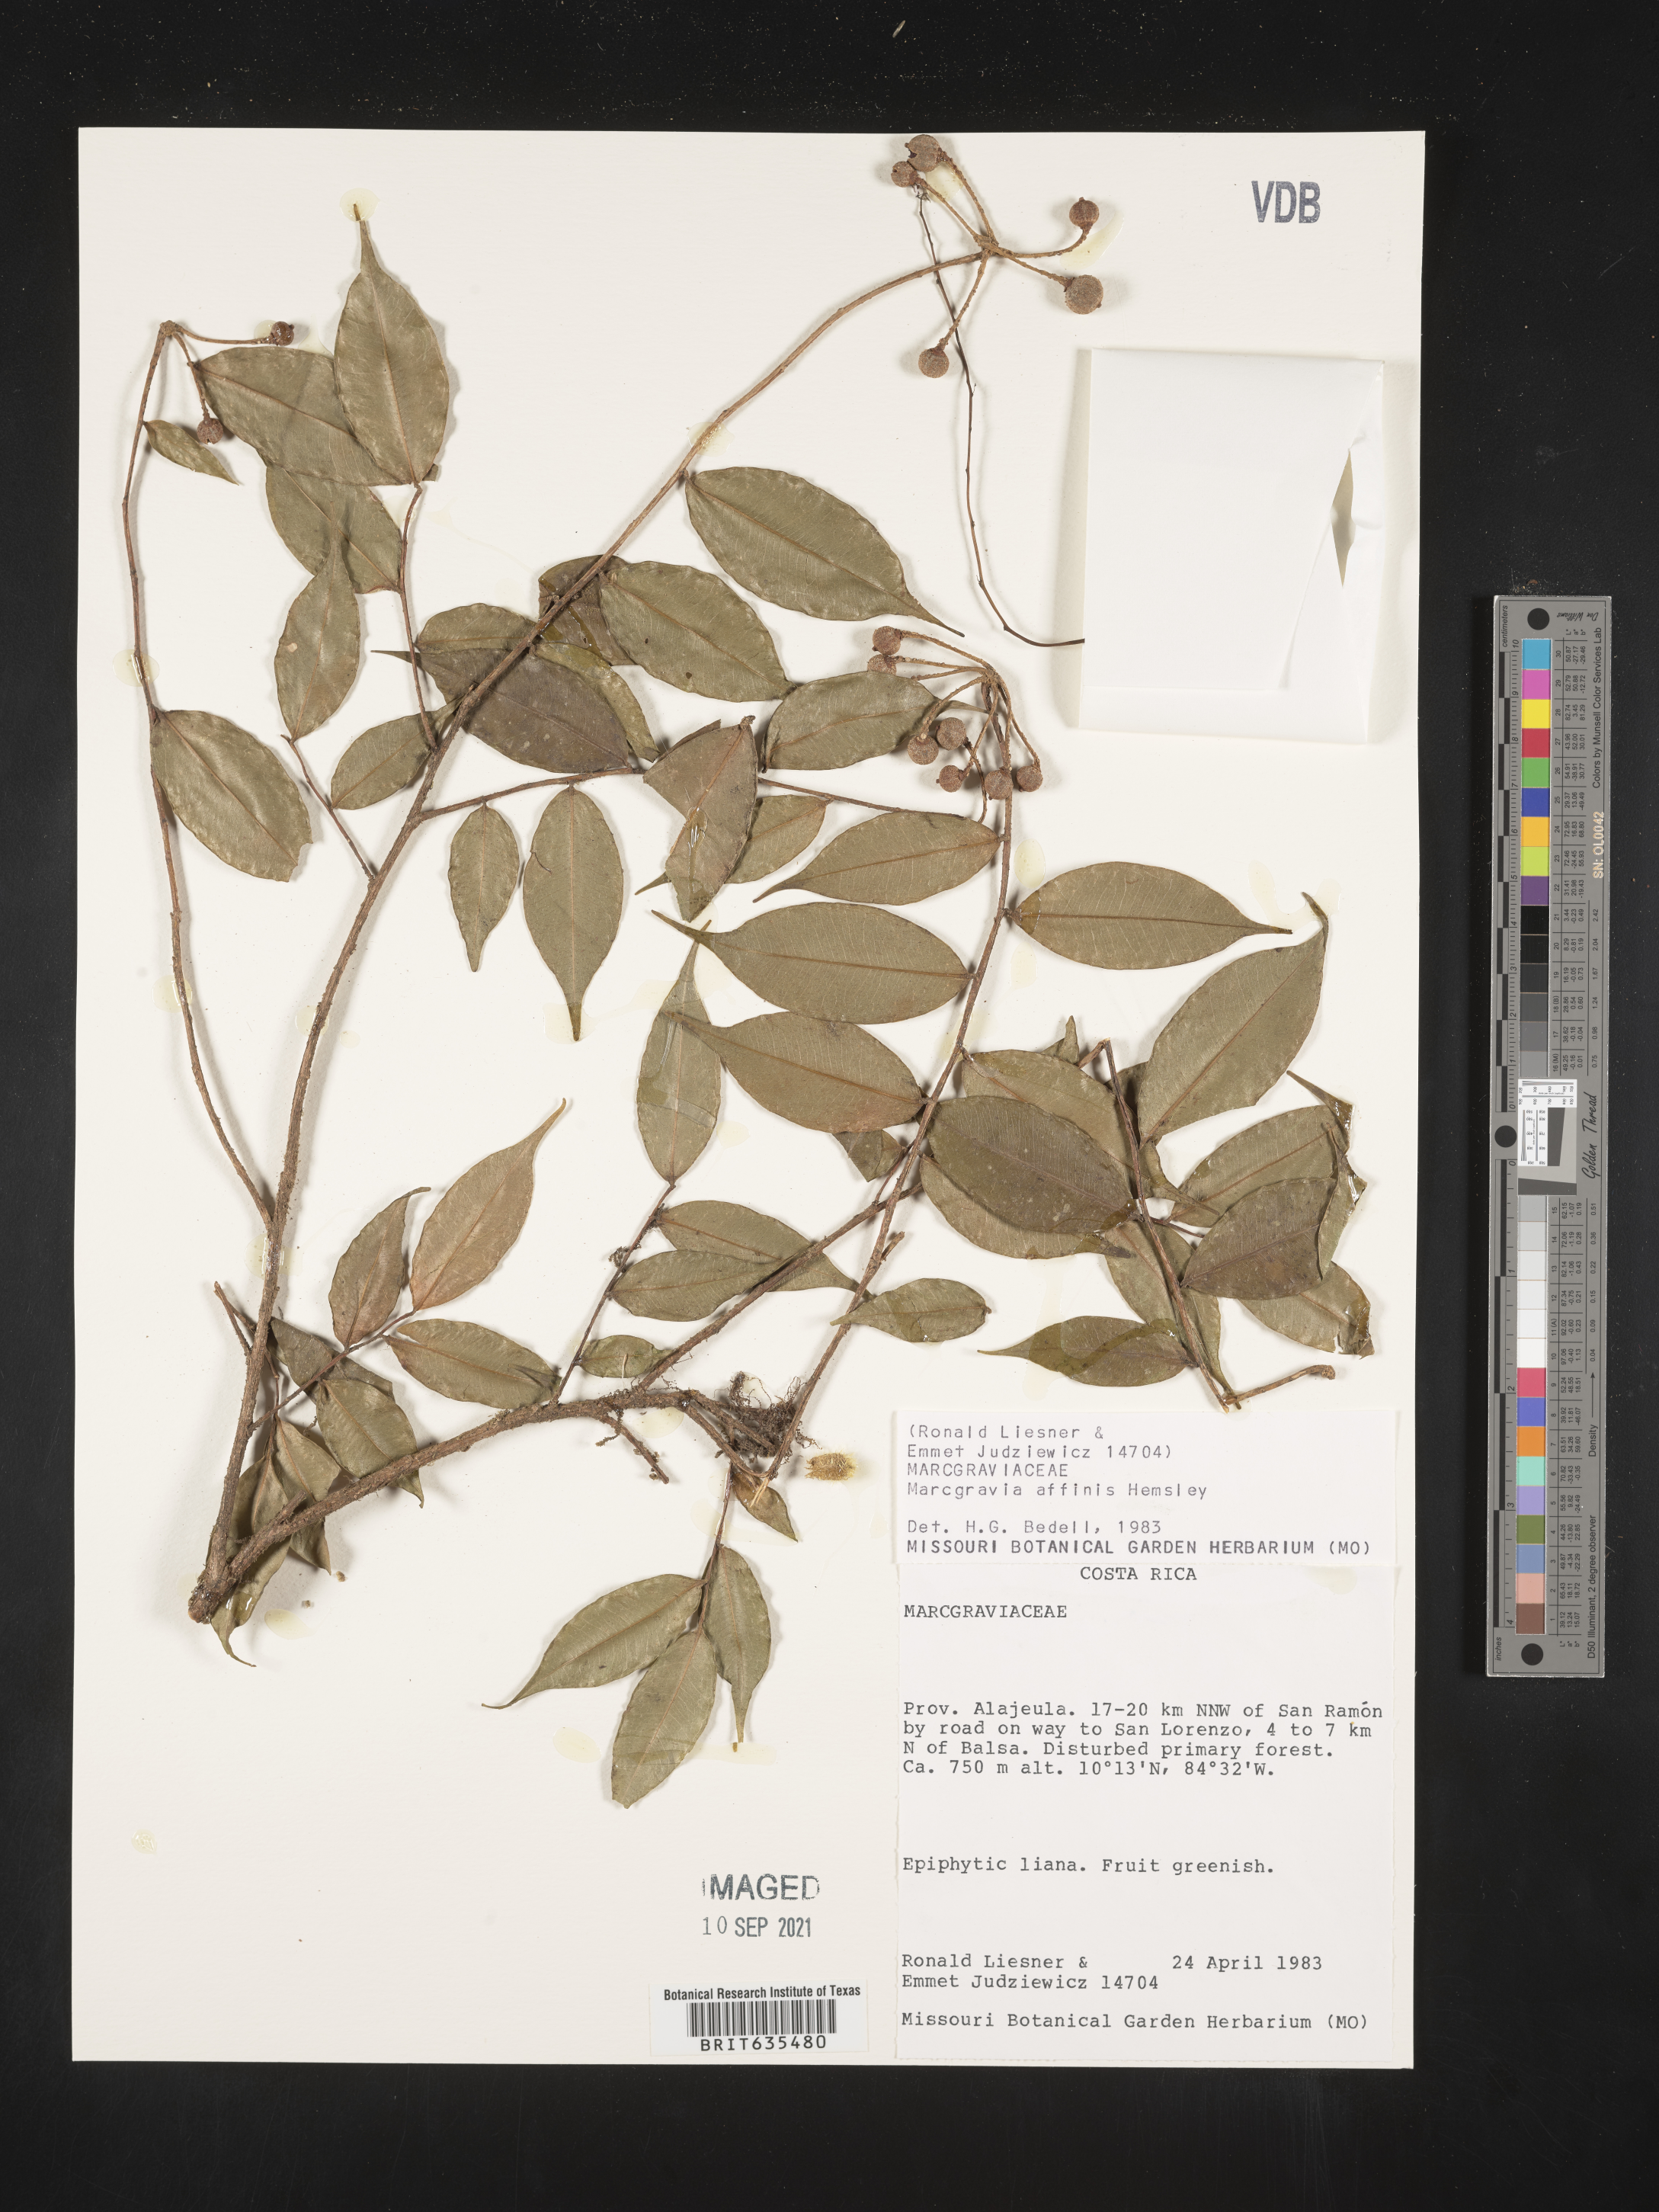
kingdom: Plantae
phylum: Tracheophyta
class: Magnoliopsida
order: Ericales
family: Marcgraviaceae
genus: Marcgravia
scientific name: Marcgravia
